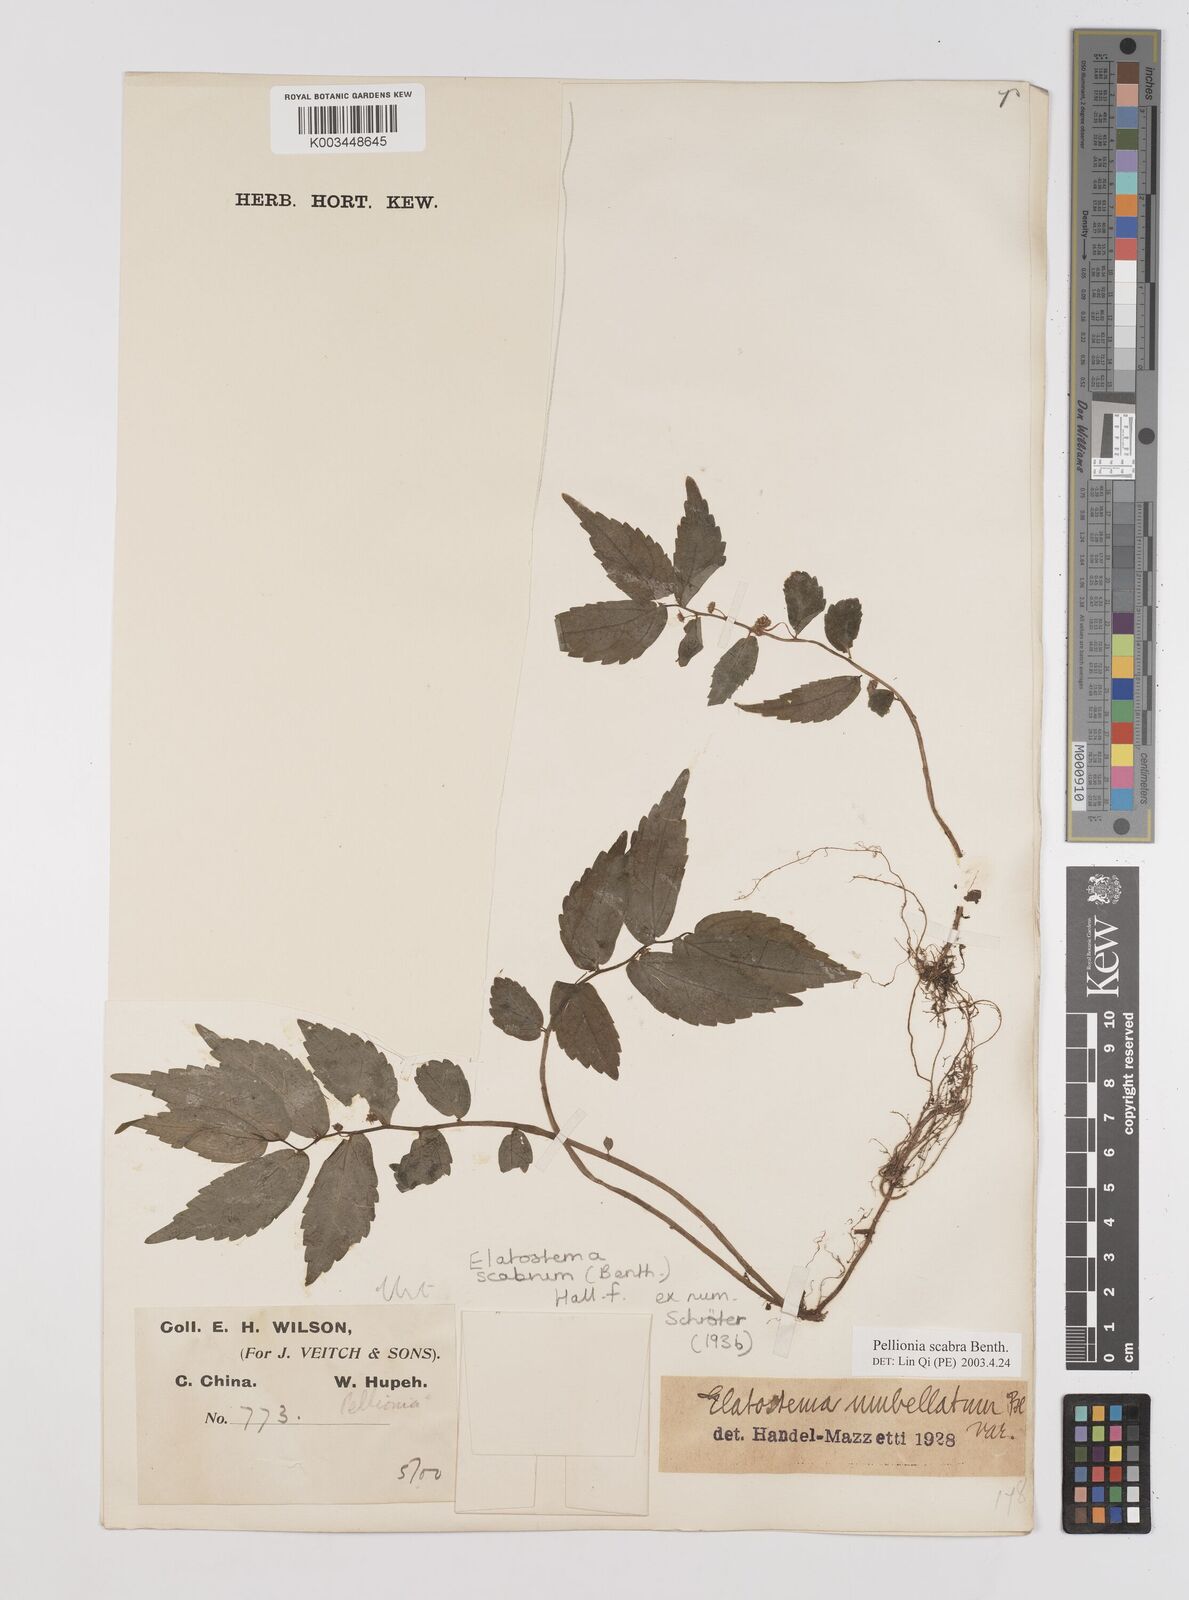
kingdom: Plantae
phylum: Tracheophyta
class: Magnoliopsida
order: Rosales
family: Urticaceae
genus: Elatostema
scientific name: Elatostema
